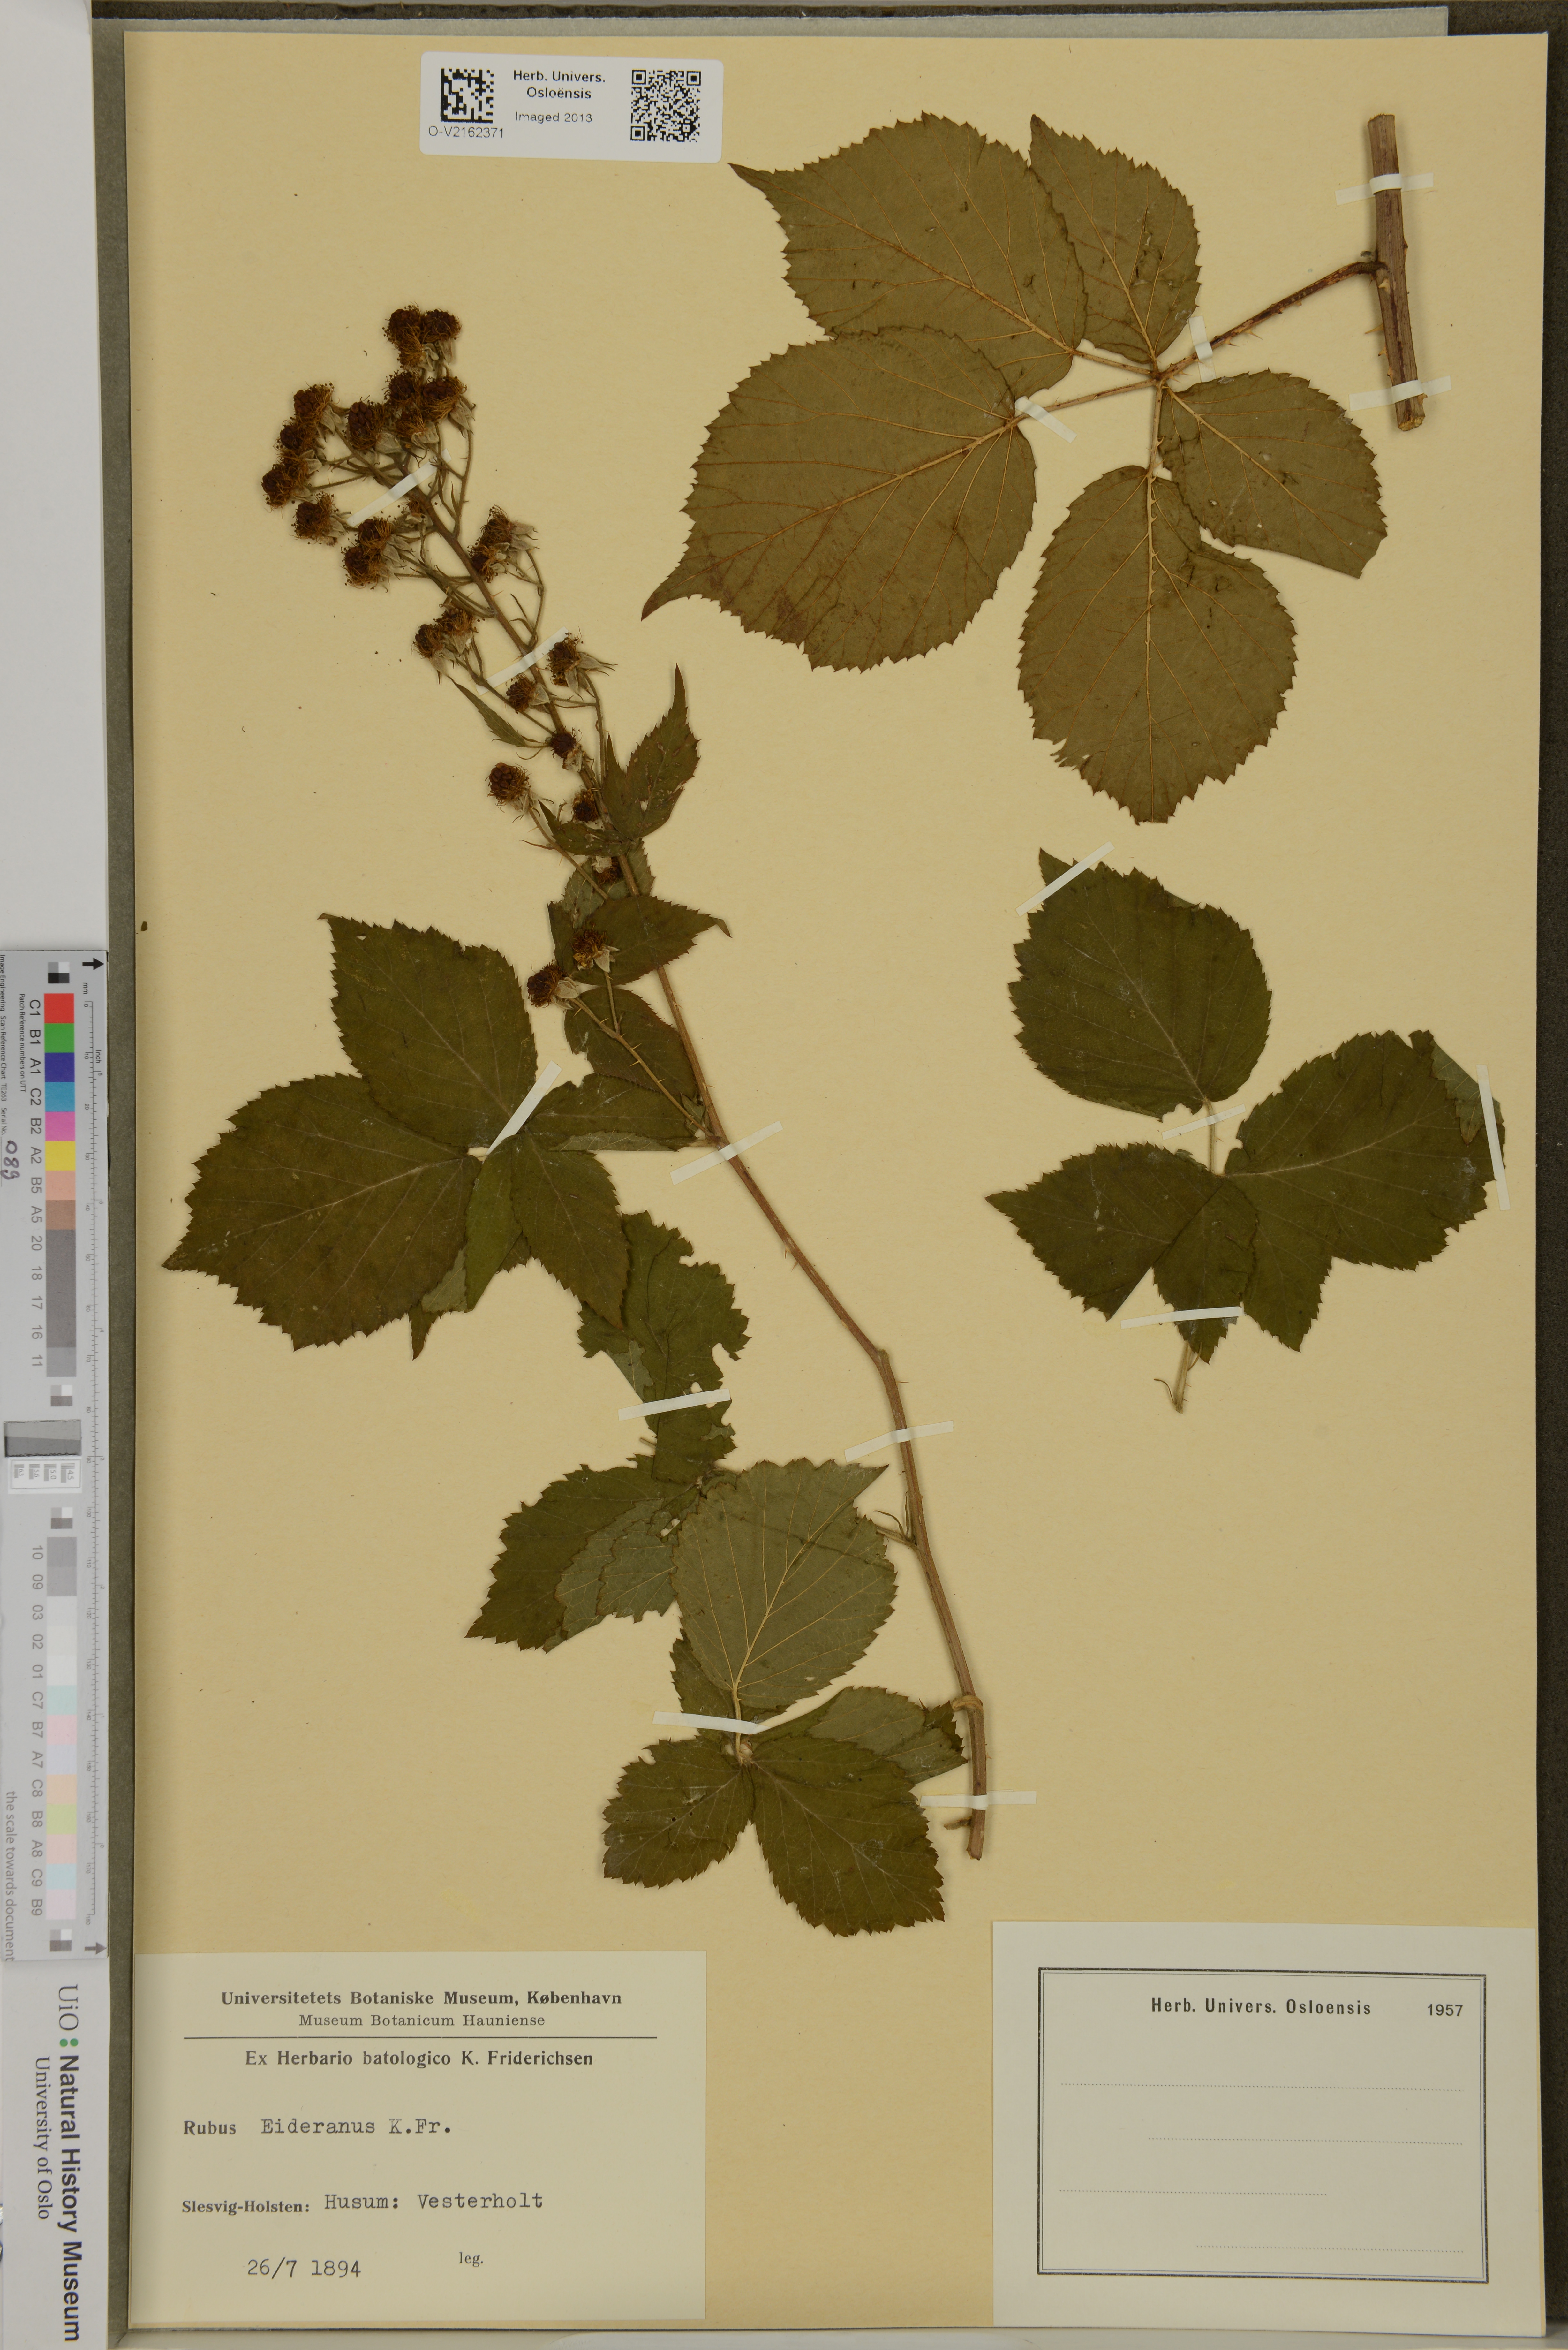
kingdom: Plantae
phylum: Tracheophyta
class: Magnoliopsida
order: Rosales
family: Rosaceae
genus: Rubus
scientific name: Rubus eiderianus
